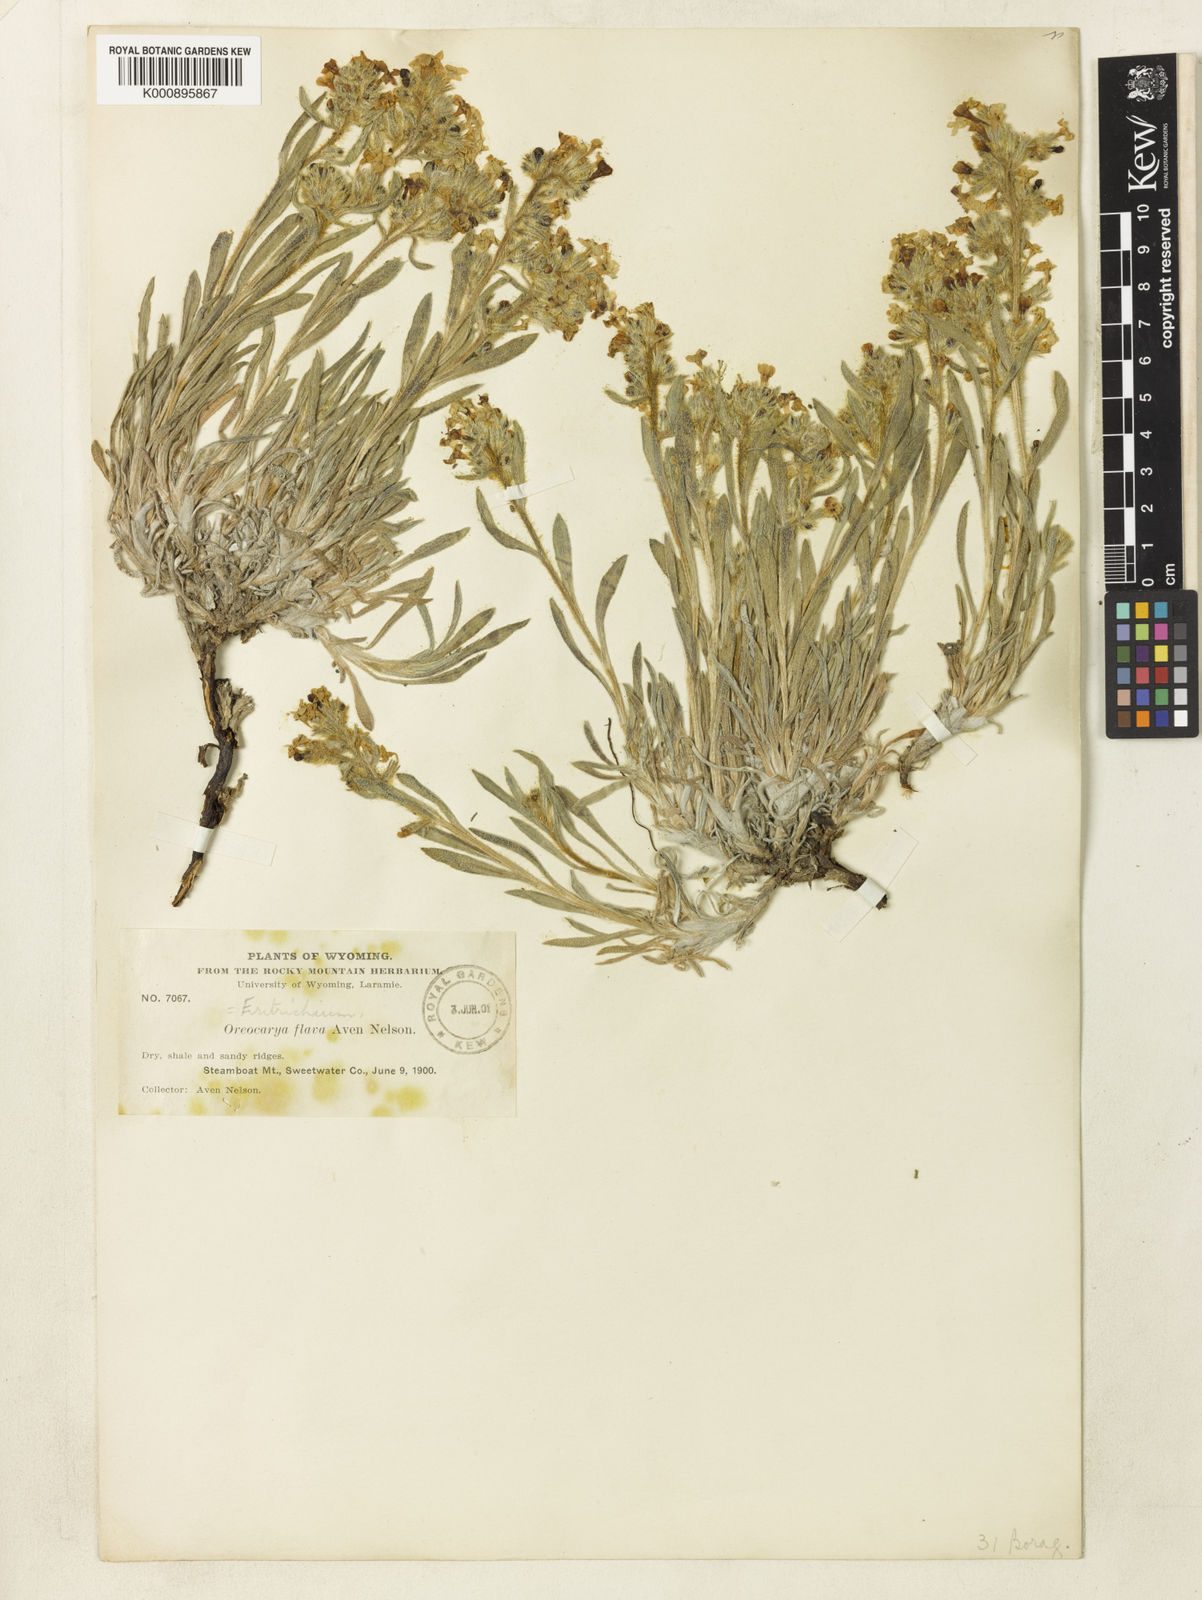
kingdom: Plantae
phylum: Tracheophyta
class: Magnoliopsida
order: Boraginales
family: Boraginaceae
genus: Oreocarya
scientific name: Oreocarya flava
